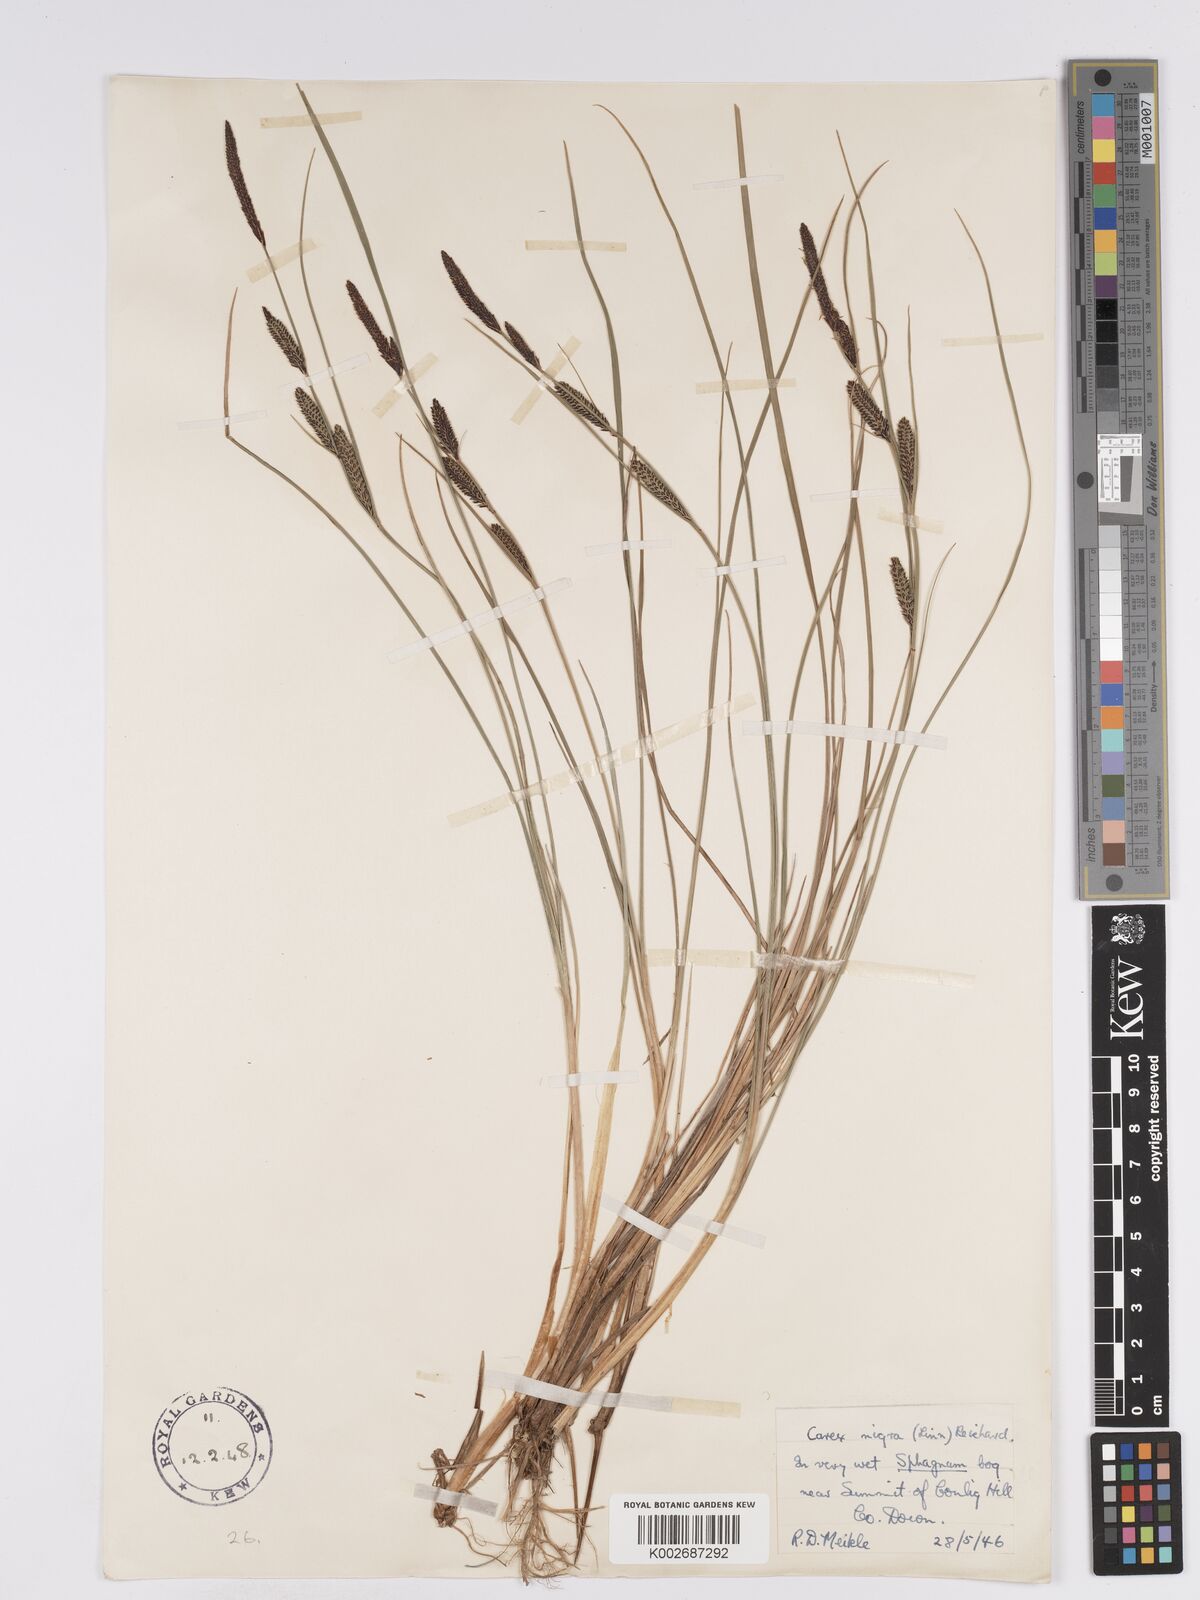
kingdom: Plantae
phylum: Tracheophyta
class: Liliopsida
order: Poales
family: Cyperaceae
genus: Carex
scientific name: Carex nigra
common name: Common sedge
